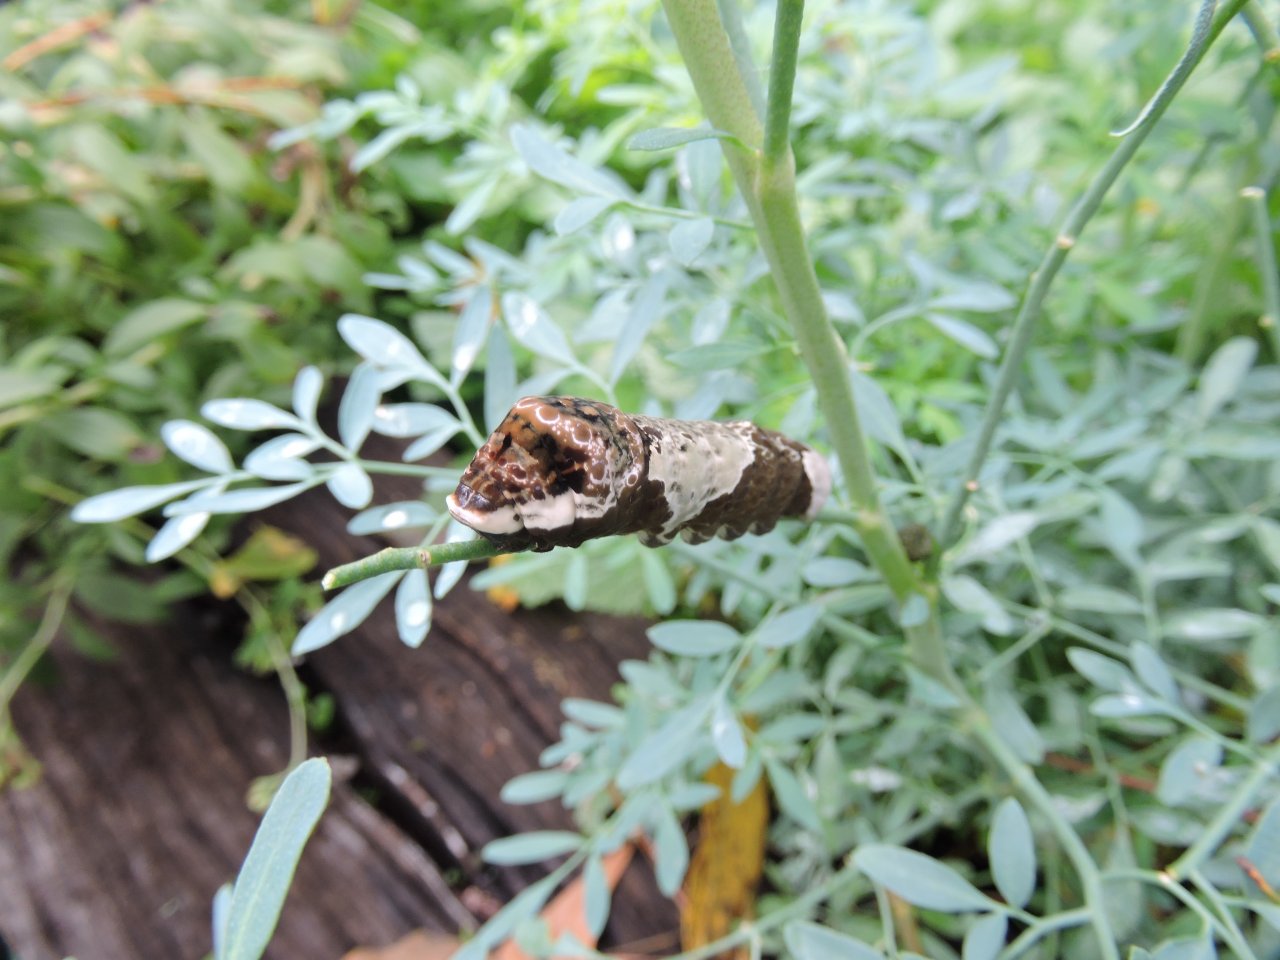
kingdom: Animalia
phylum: Arthropoda
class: Insecta
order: Lepidoptera
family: Papilionidae
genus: Papilio
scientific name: Papilio cresphontes
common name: Eastern Giant Swallowtail
